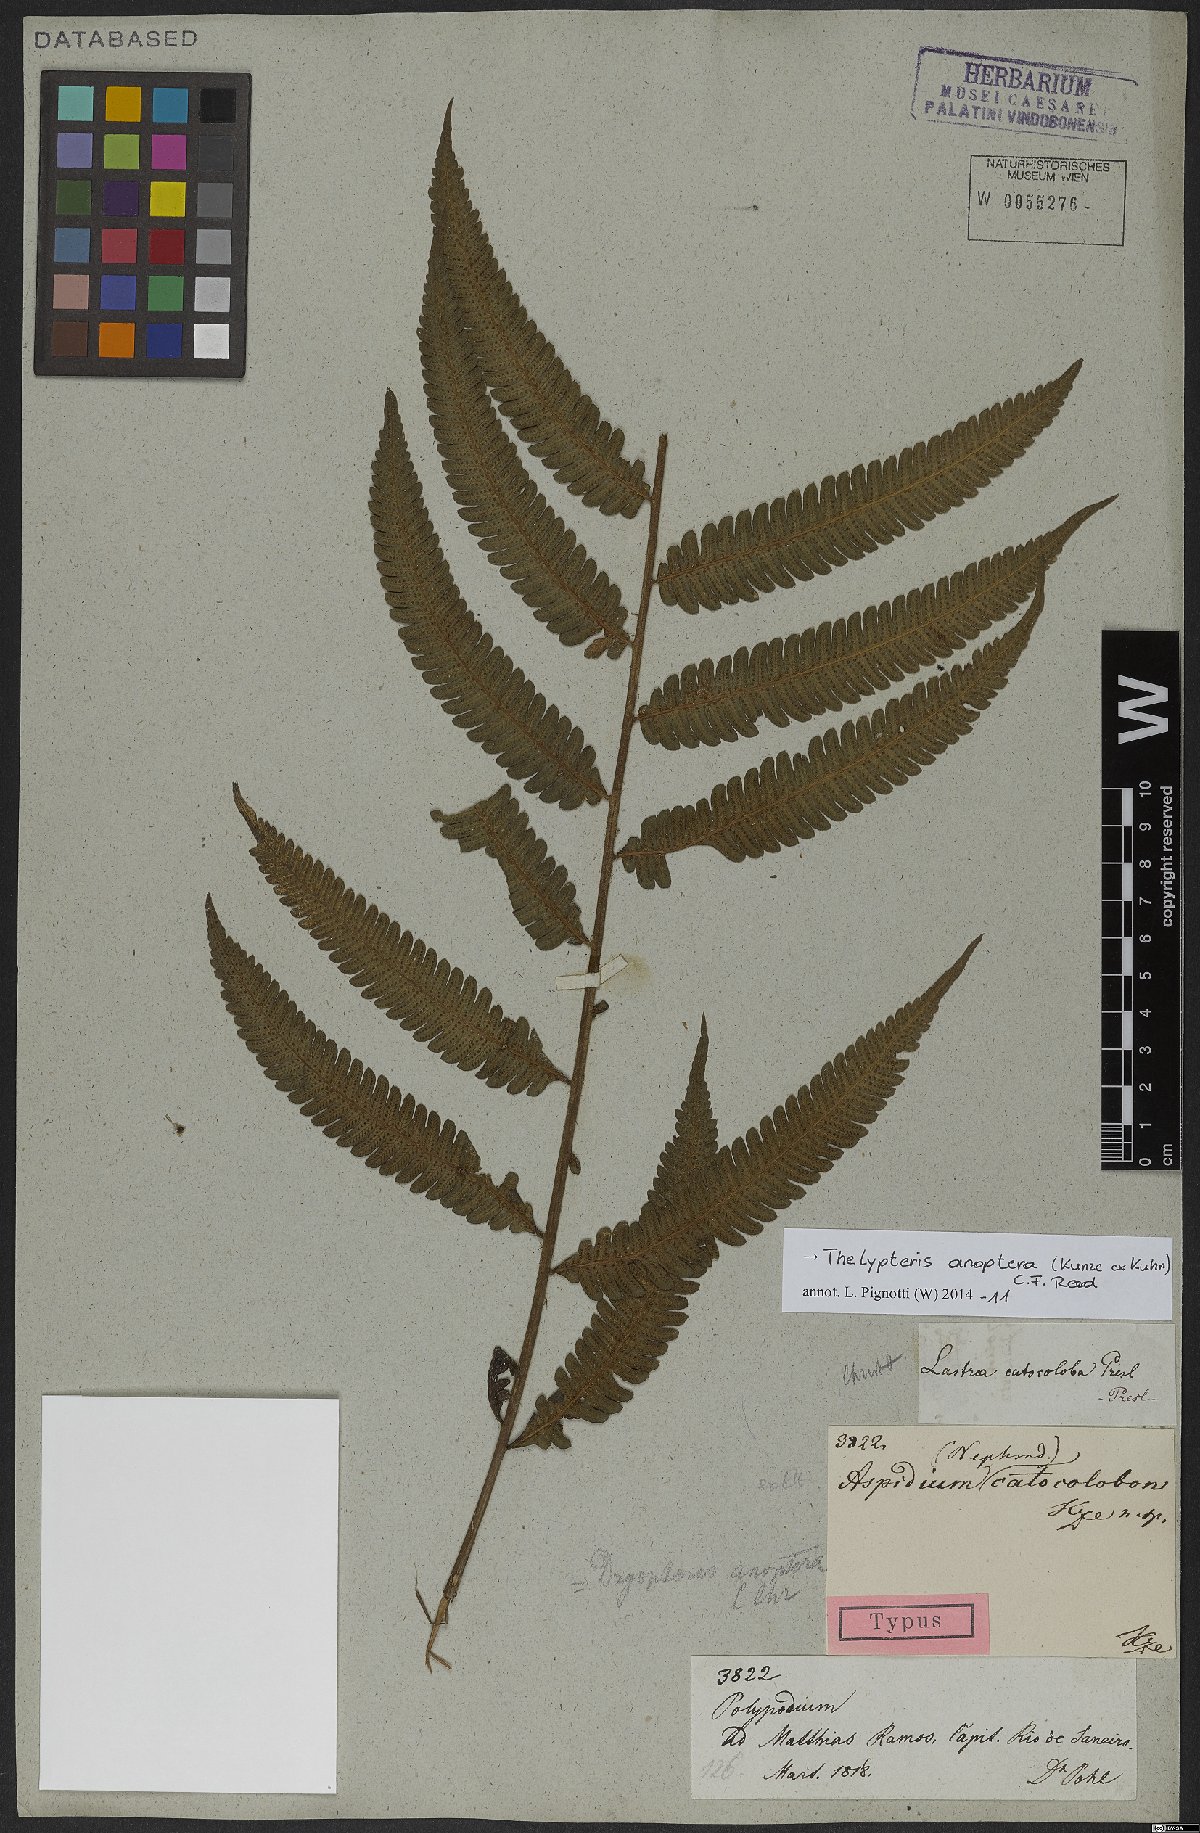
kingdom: Plantae
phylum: Tracheophyta
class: Polypodiopsida
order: Polypodiales
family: Thelypteridaceae
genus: Goniopteris
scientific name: Goniopteris anopteros
